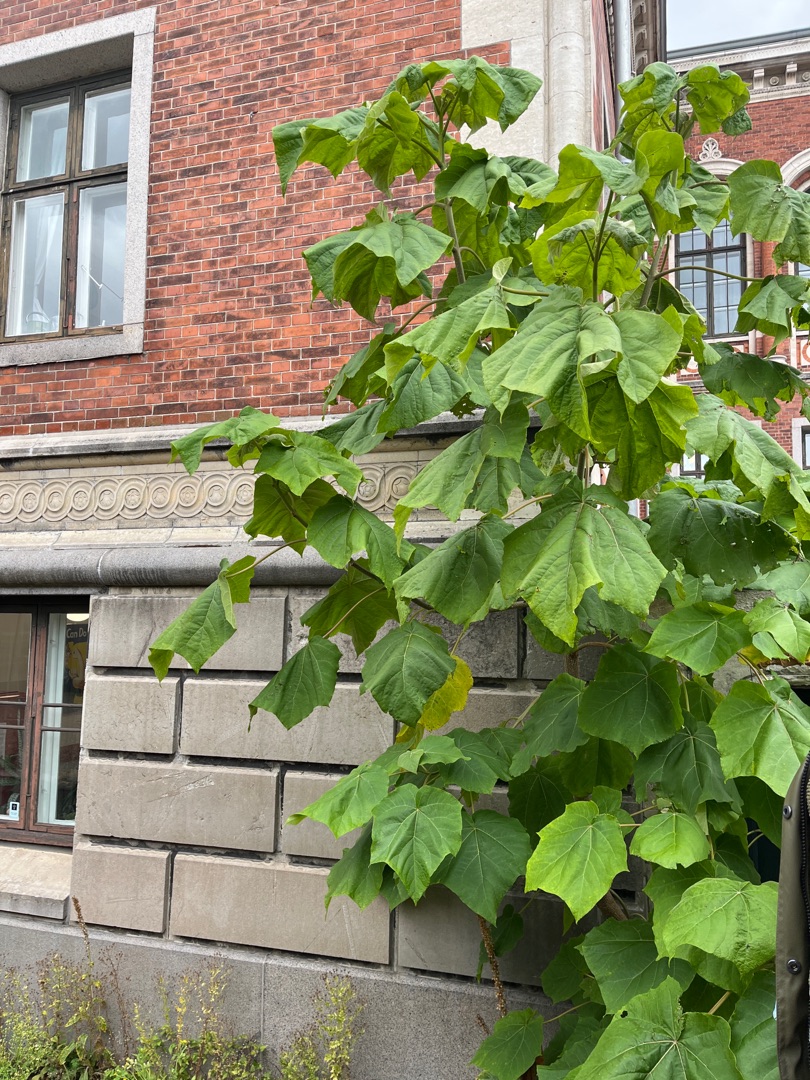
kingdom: Plantae
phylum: Tracheophyta
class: Magnoliopsida
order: Lamiales
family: Paulowniaceae
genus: Paulownia
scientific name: Paulownia tomentosa
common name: Kejsertræ
